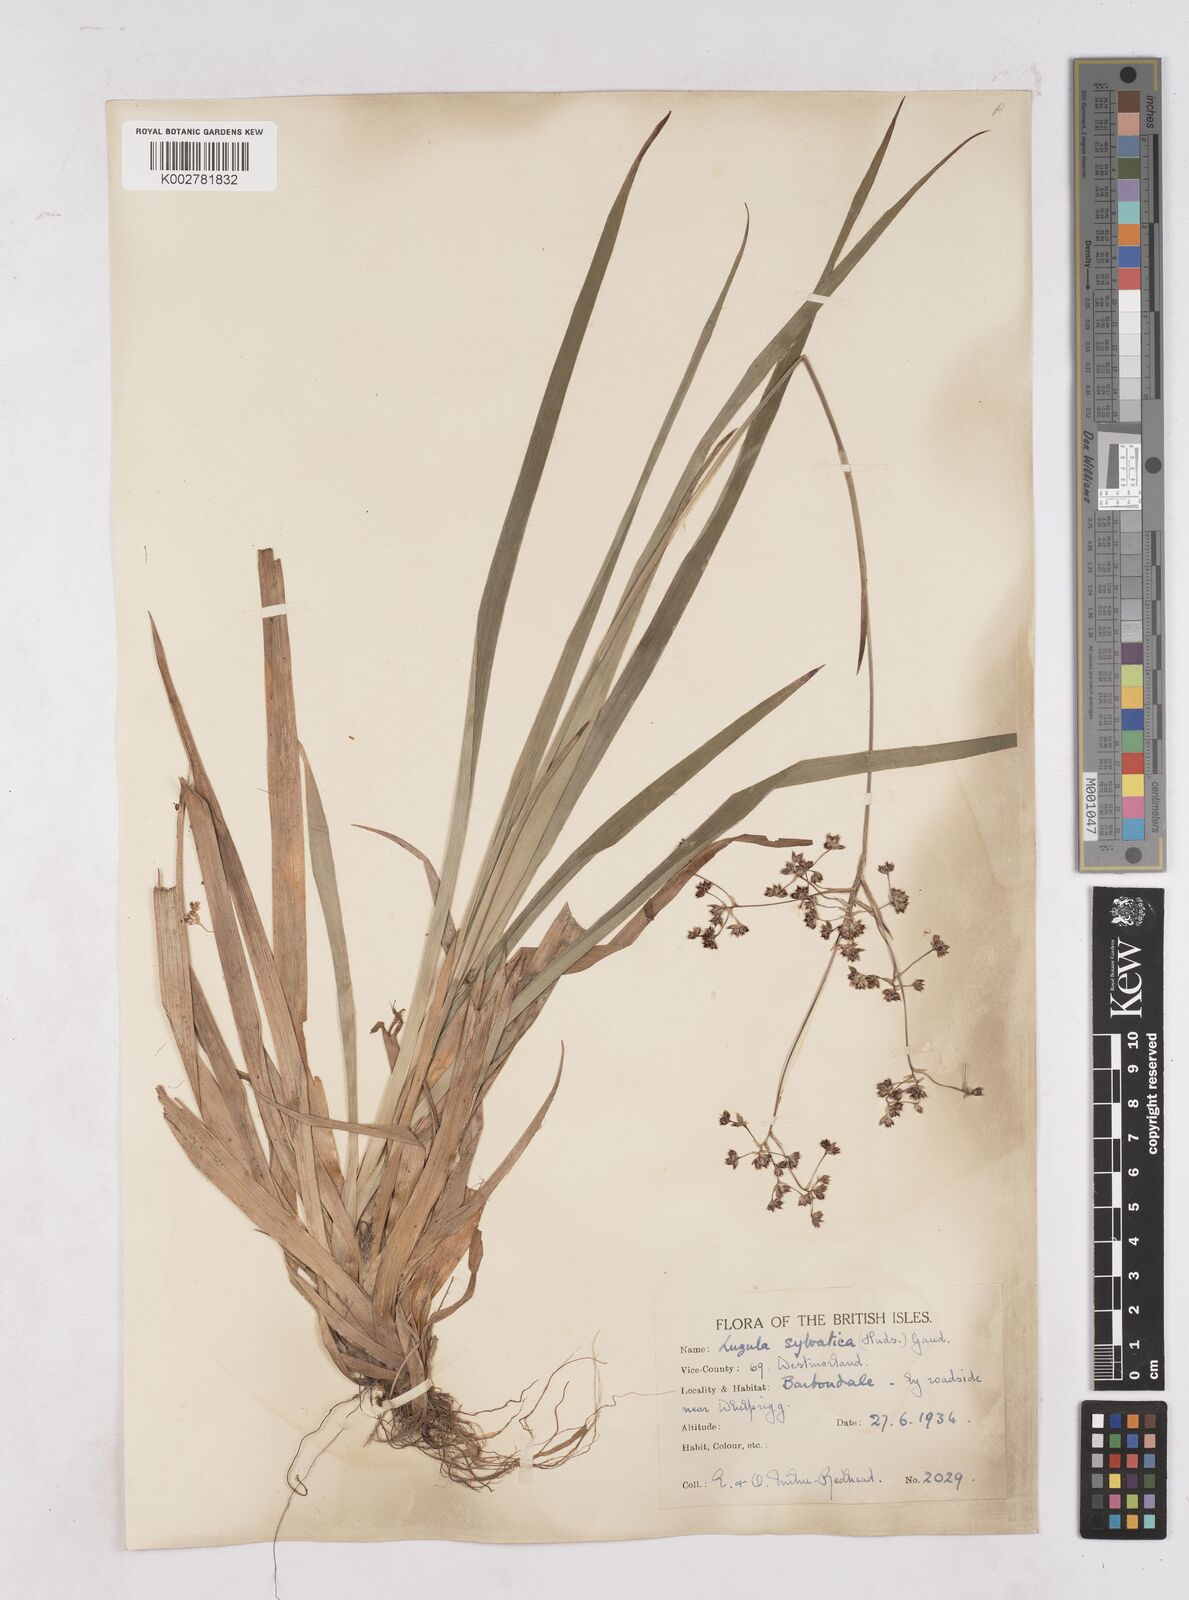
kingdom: Plantae
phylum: Tracheophyta
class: Liliopsida
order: Poales
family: Juncaceae
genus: Luzula
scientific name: Luzula sylvatica
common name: Great wood-rush
